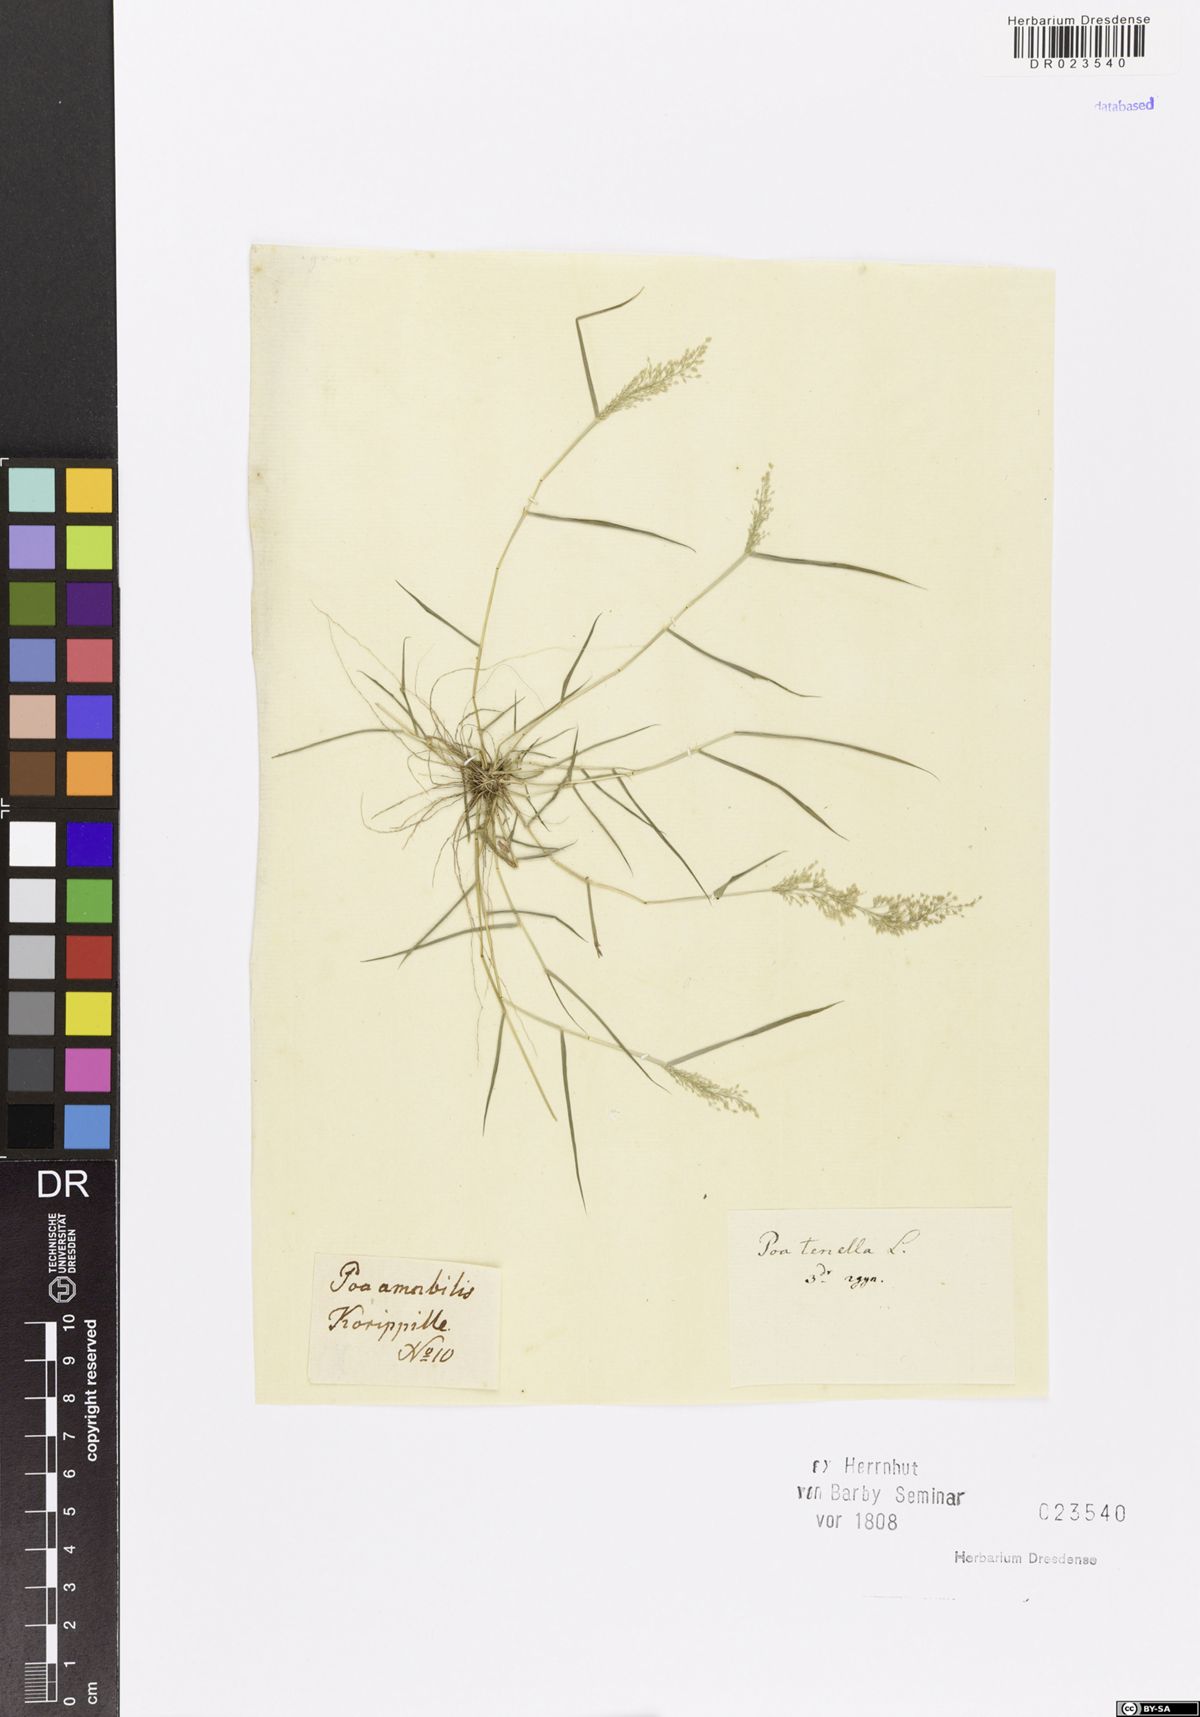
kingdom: Plantae
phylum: Tracheophyta
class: Liliopsida
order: Poales
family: Poaceae
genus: Eragrostis
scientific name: Eragrostis viscosa
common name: Sticky love grass
